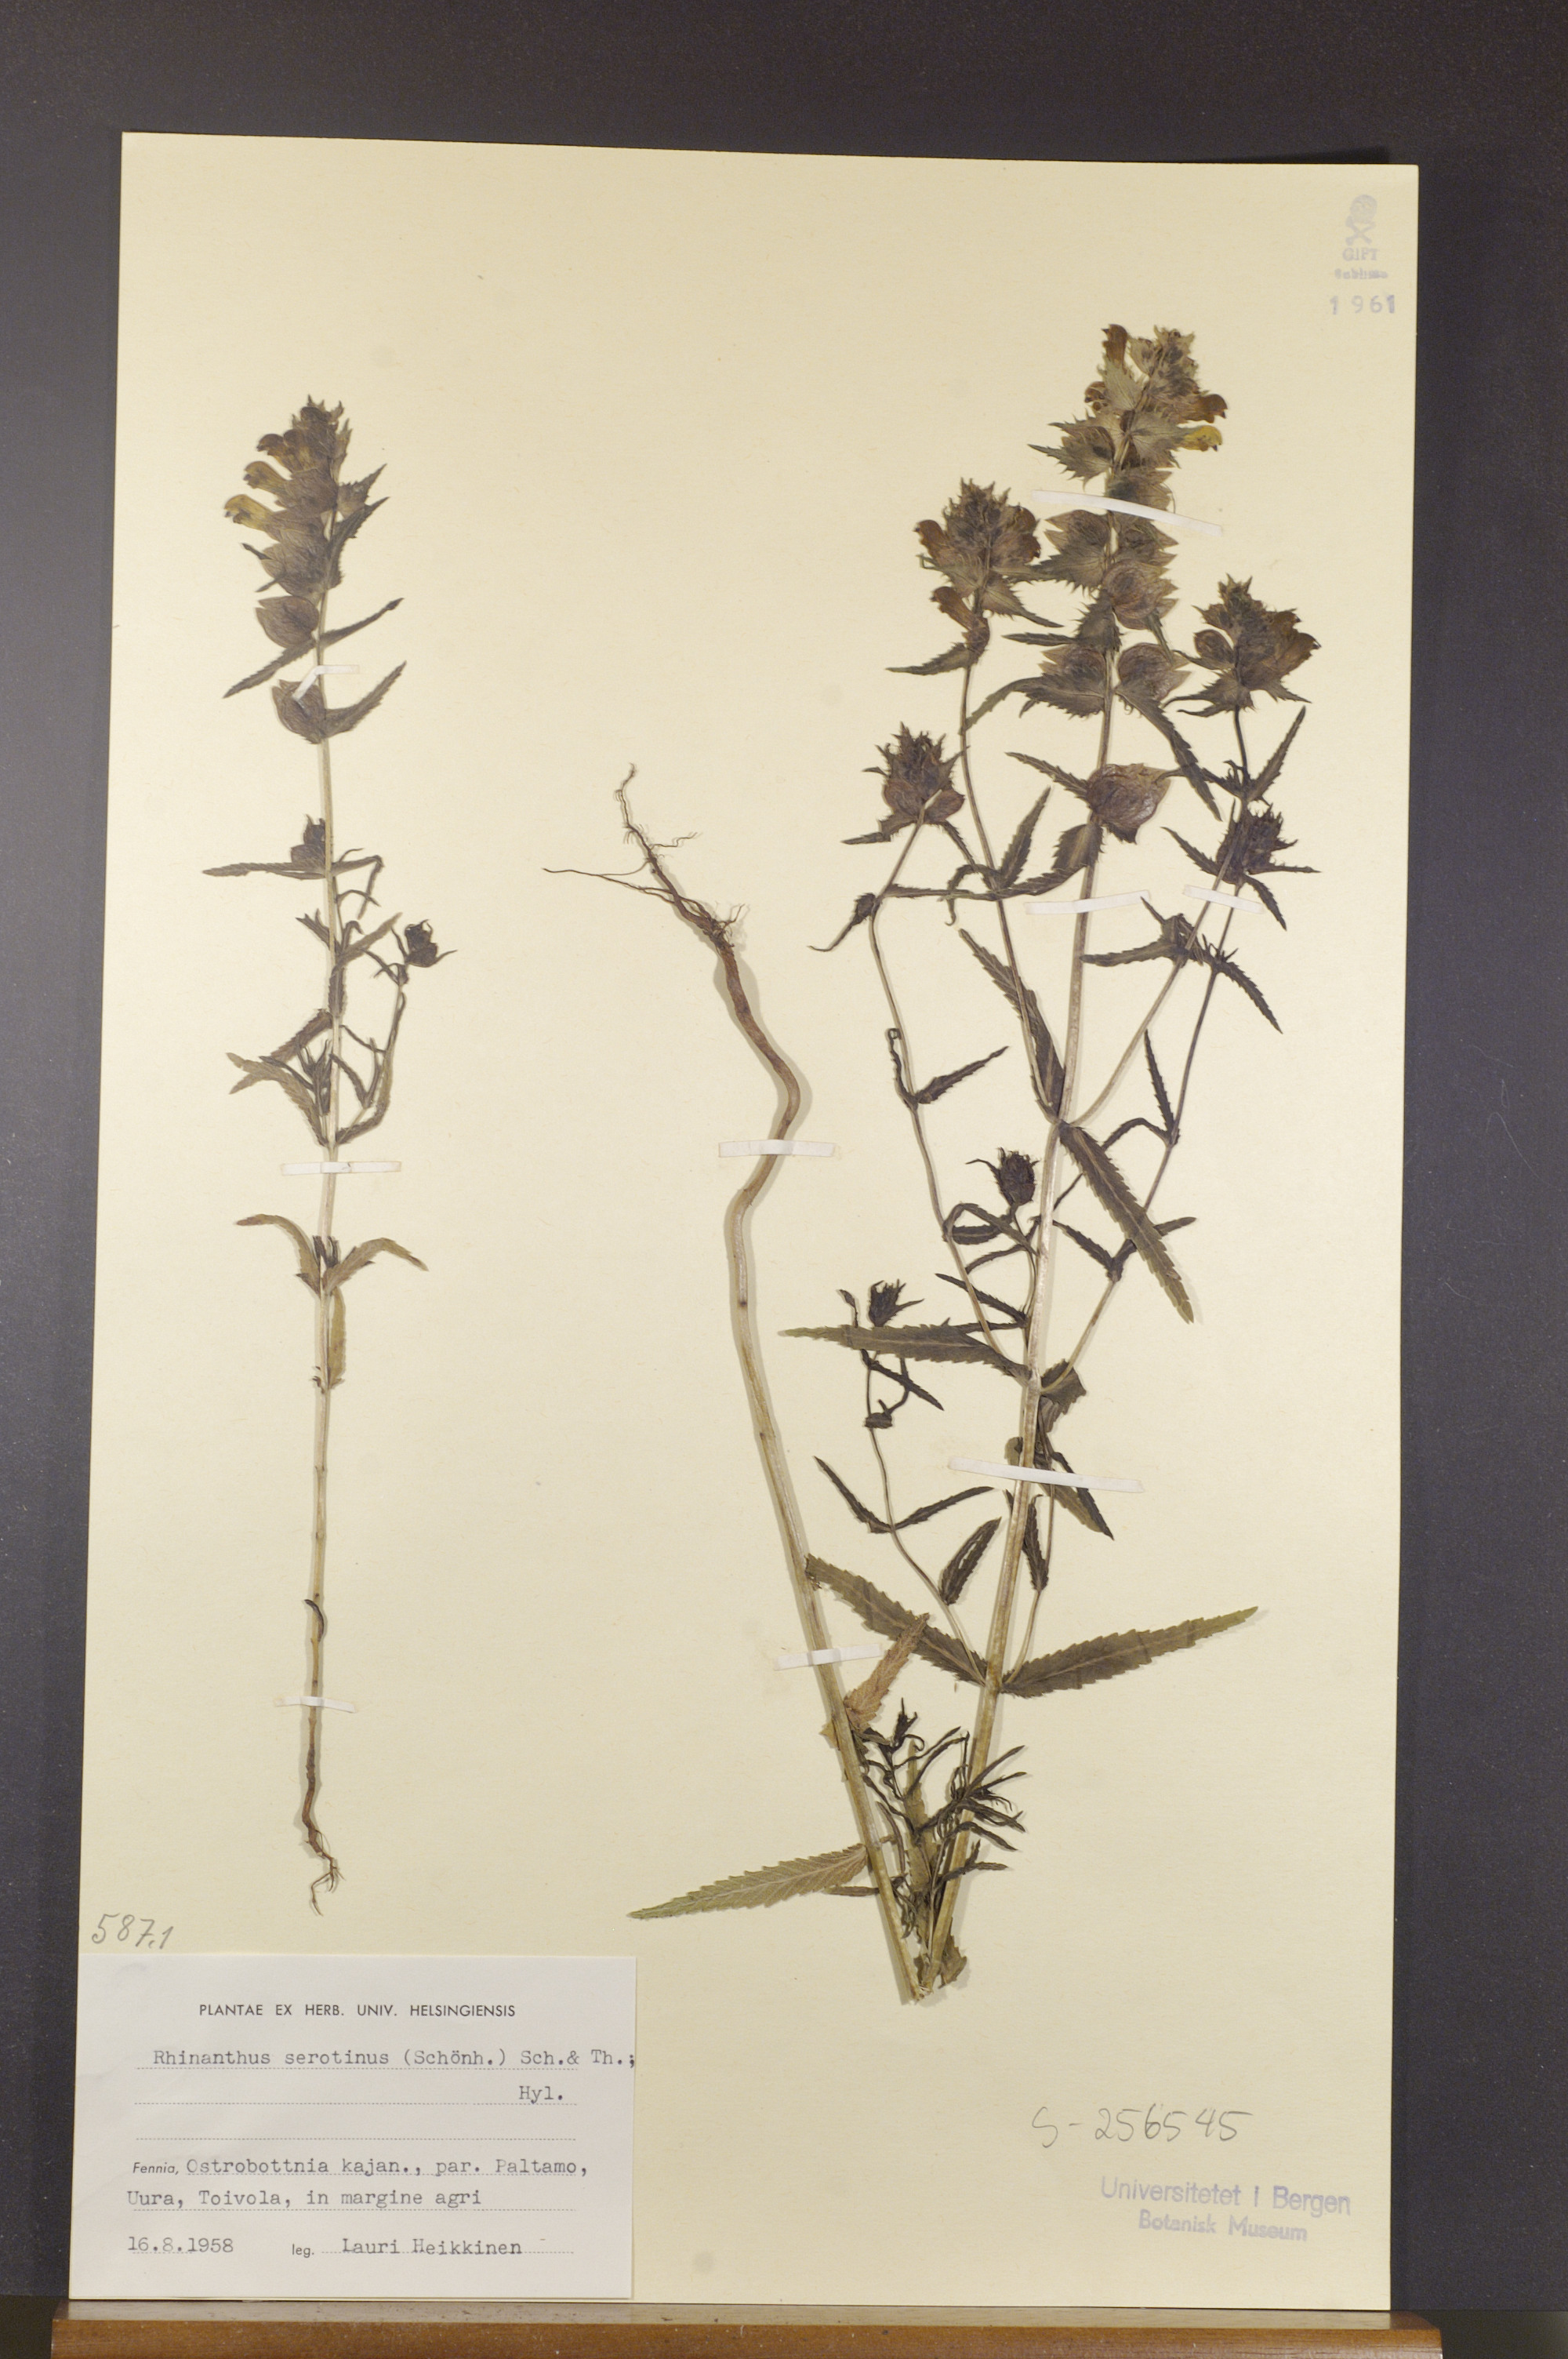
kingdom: Plantae
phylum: Tracheophyta
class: Magnoliopsida
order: Lamiales
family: Orobanchaceae
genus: Rhinanthus
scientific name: Rhinanthus
